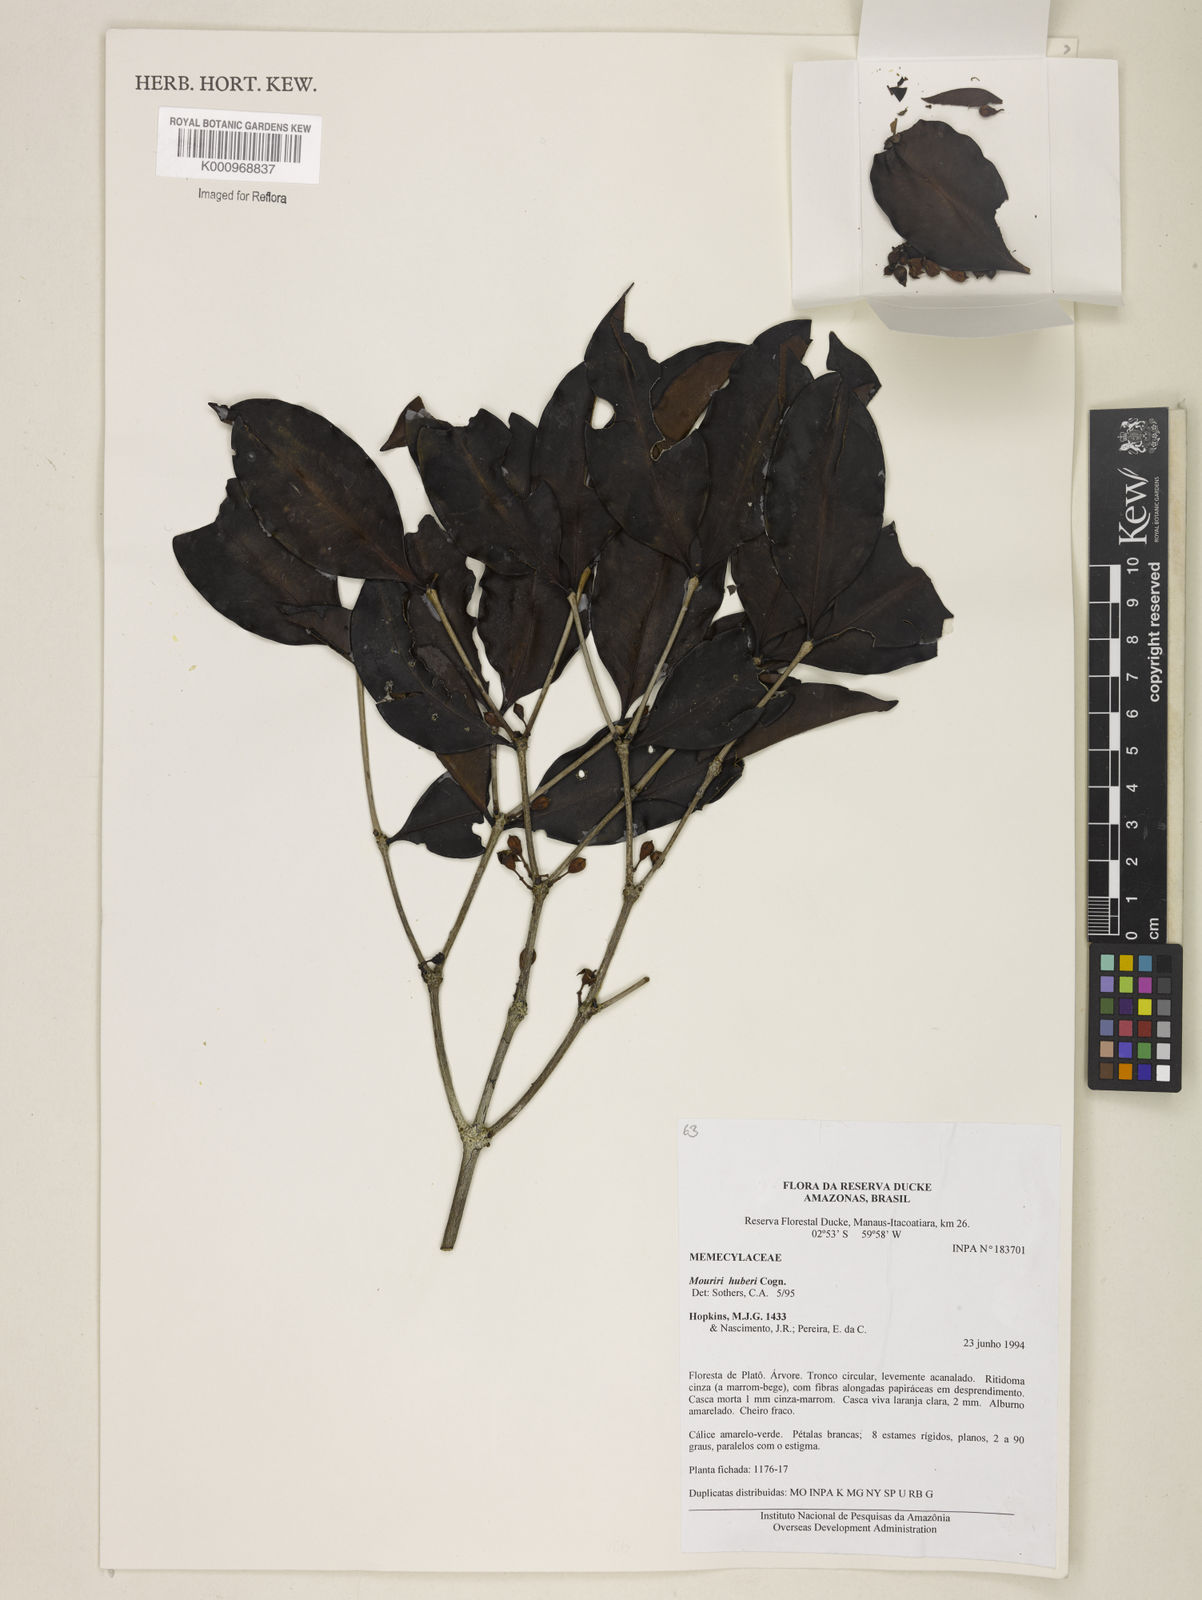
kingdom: Plantae
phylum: Tracheophyta
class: Magnoliopsida
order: Myrtales
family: Melastomataceae
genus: Mouriri
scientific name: Mouriri huberi
